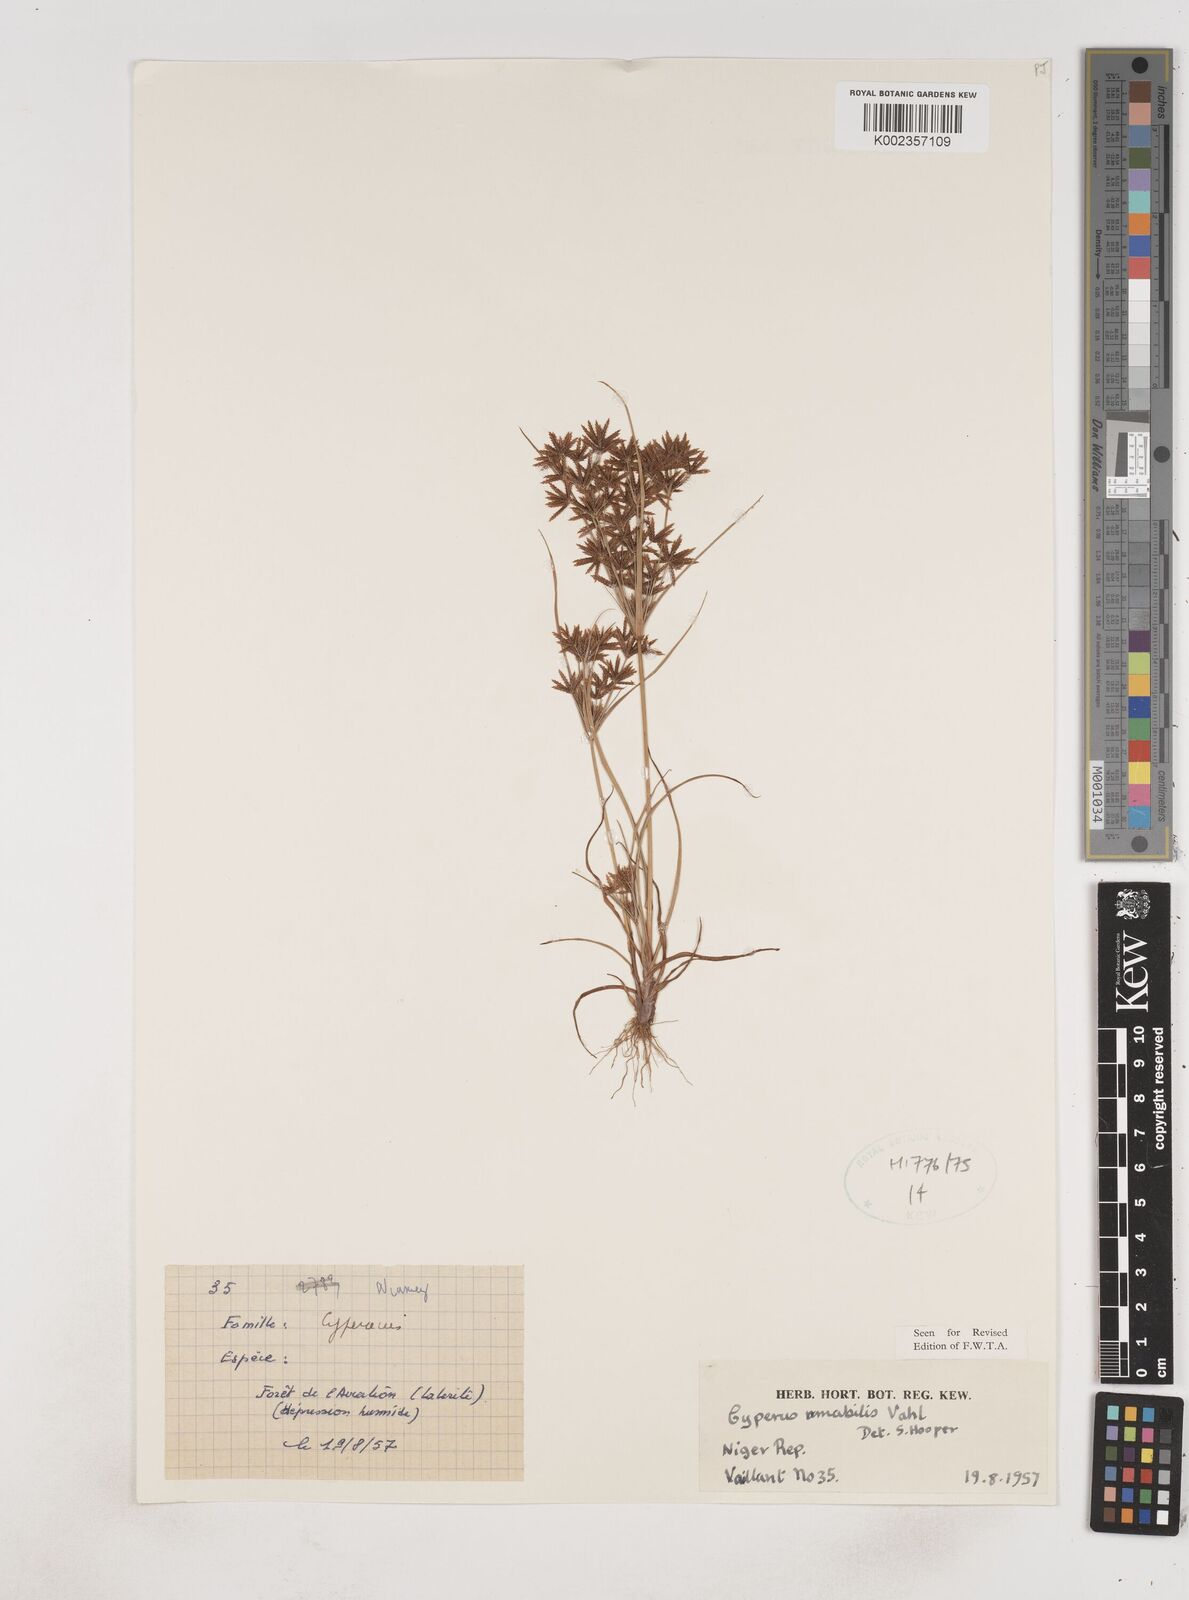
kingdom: Plantae
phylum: Tracheophyta
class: Liliopsida
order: Poales
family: Cyperaceae
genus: Cyperus
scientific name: Cyperus amabilis
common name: Foothill flat sedge
